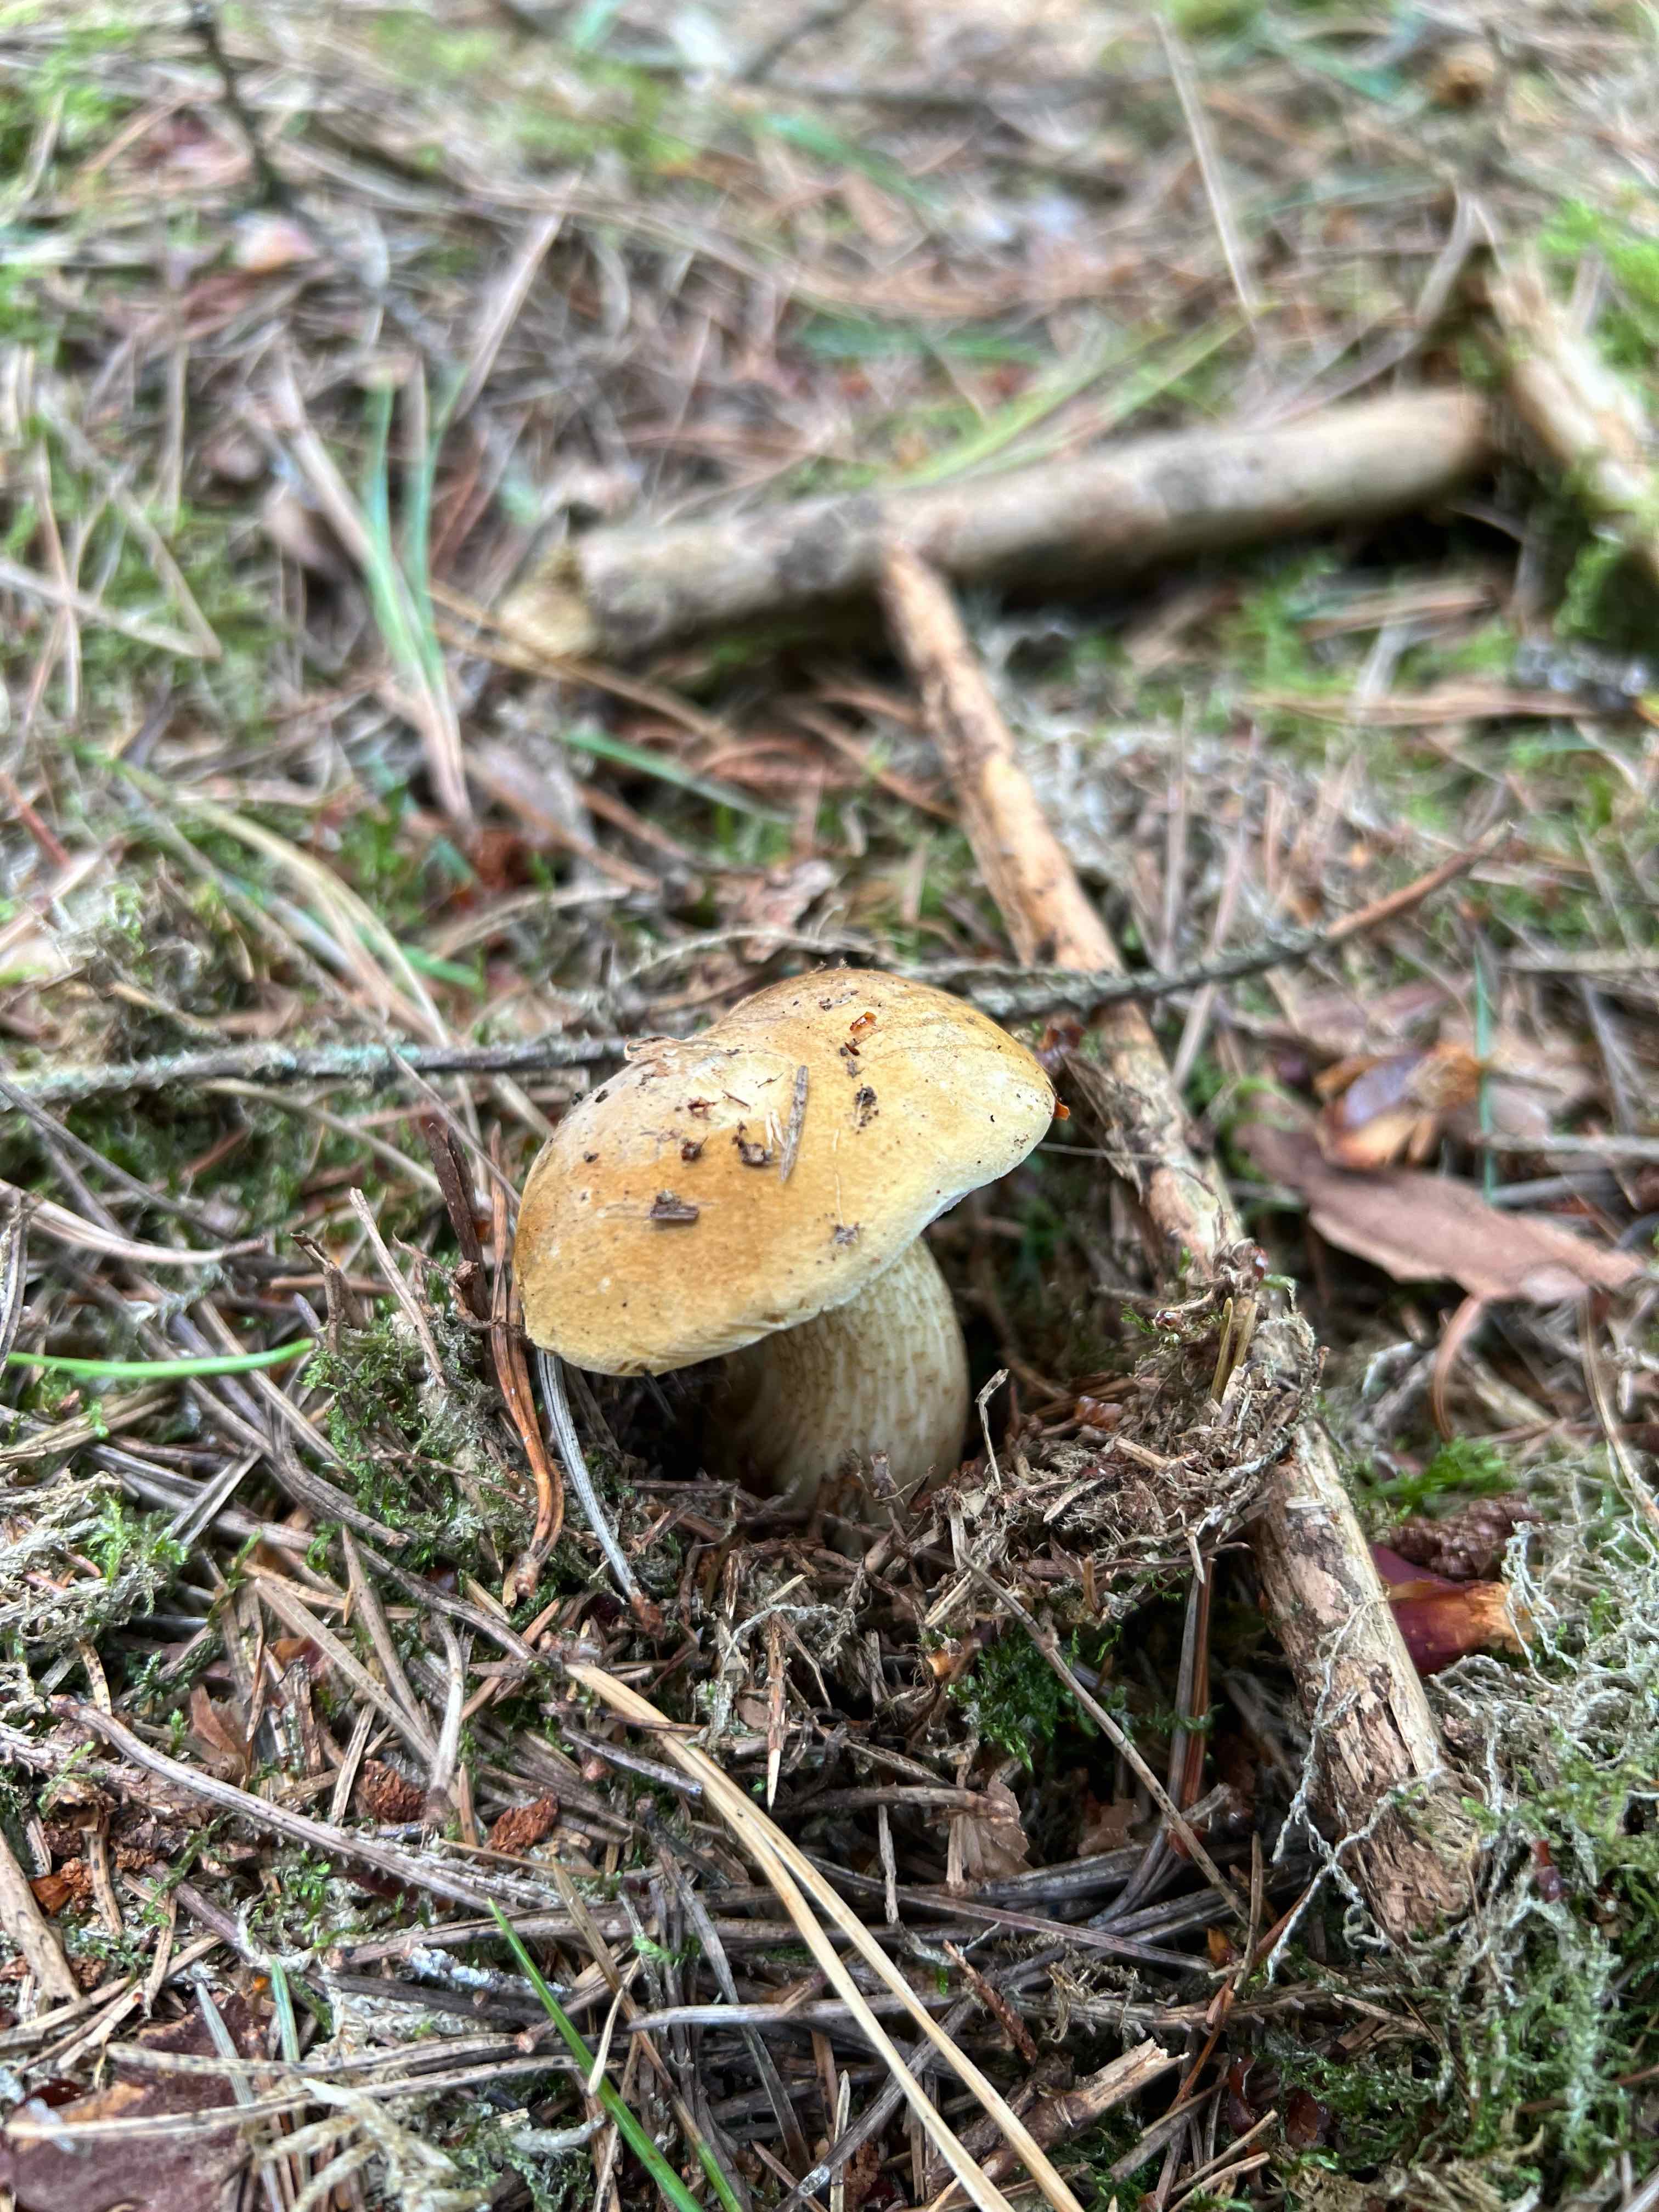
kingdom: Fungi
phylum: Basidiomycota
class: Agaricomycetes
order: Boletales
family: Boletaceae
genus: Tylopilus
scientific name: Tylopilus felleus
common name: galderørhat
